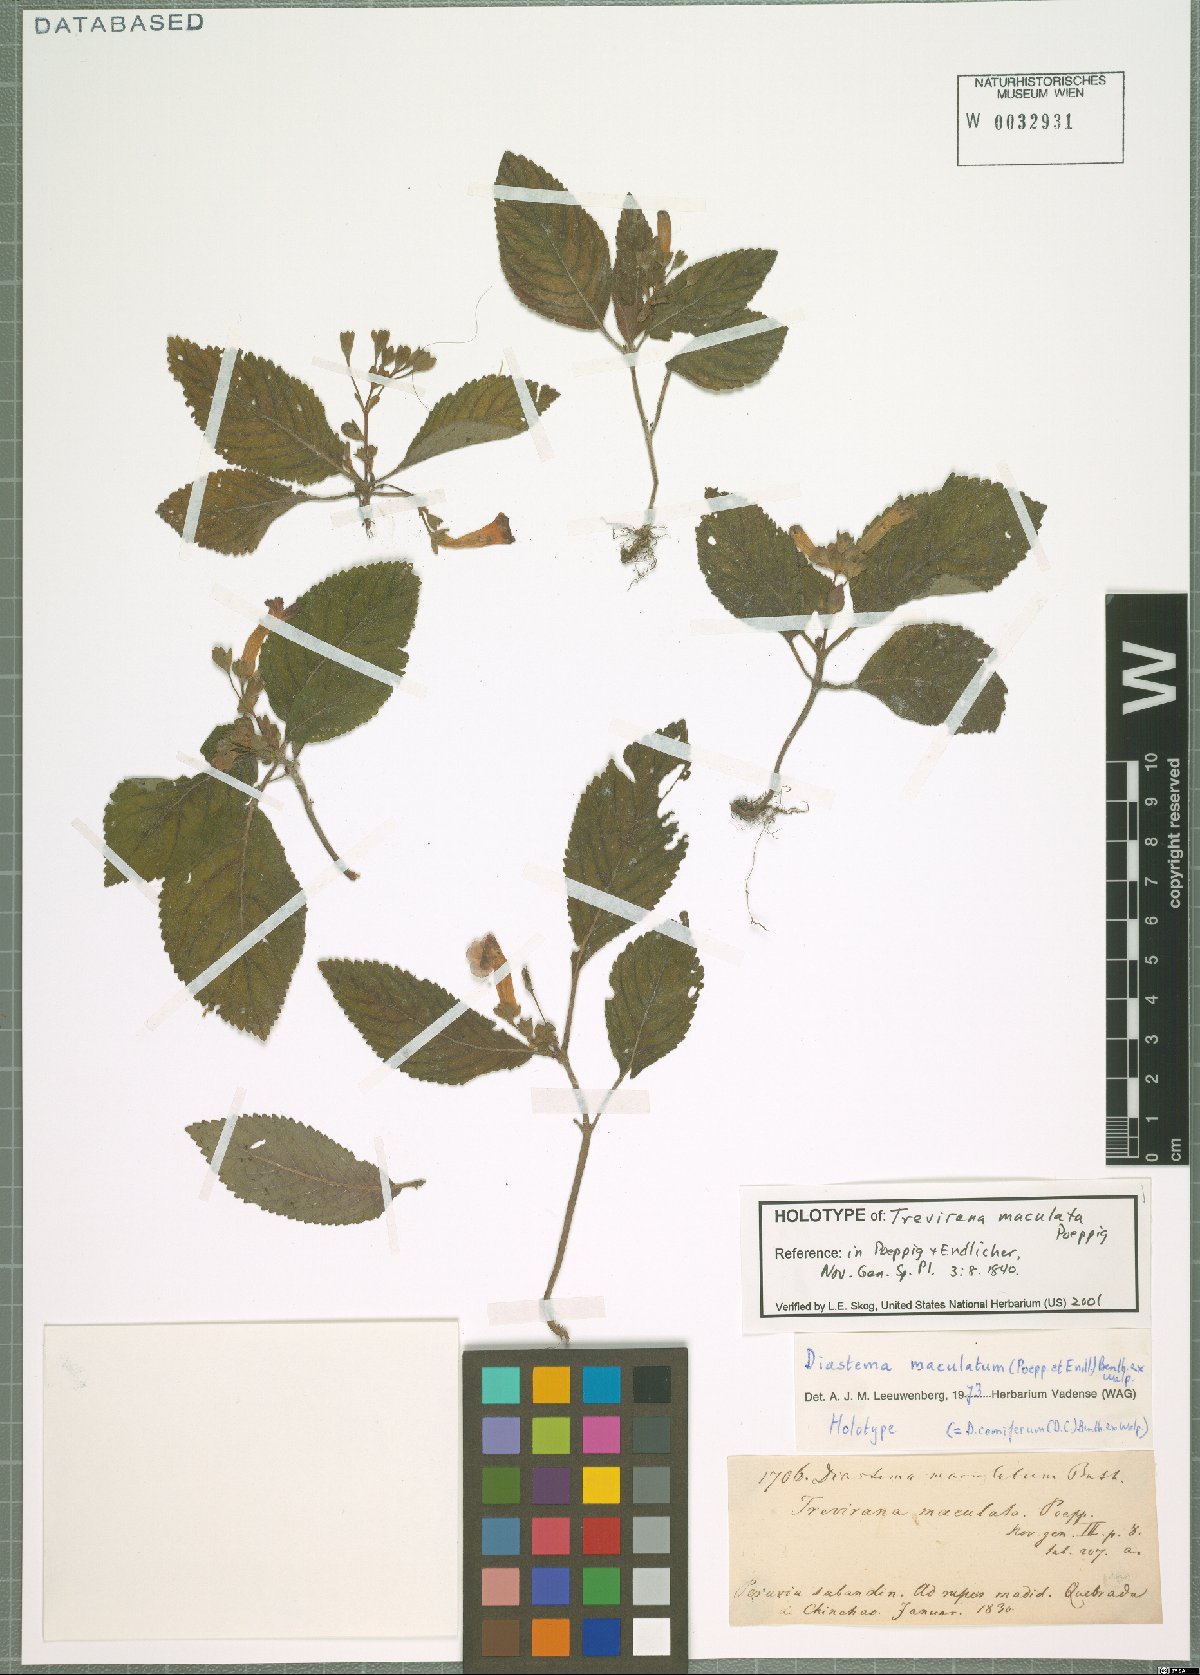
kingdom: Plantae
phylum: Tracheophyta
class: Magnoliopsida
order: Lamiales
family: Gesneriaceae
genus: Diastema
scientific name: Diastema maculatum
